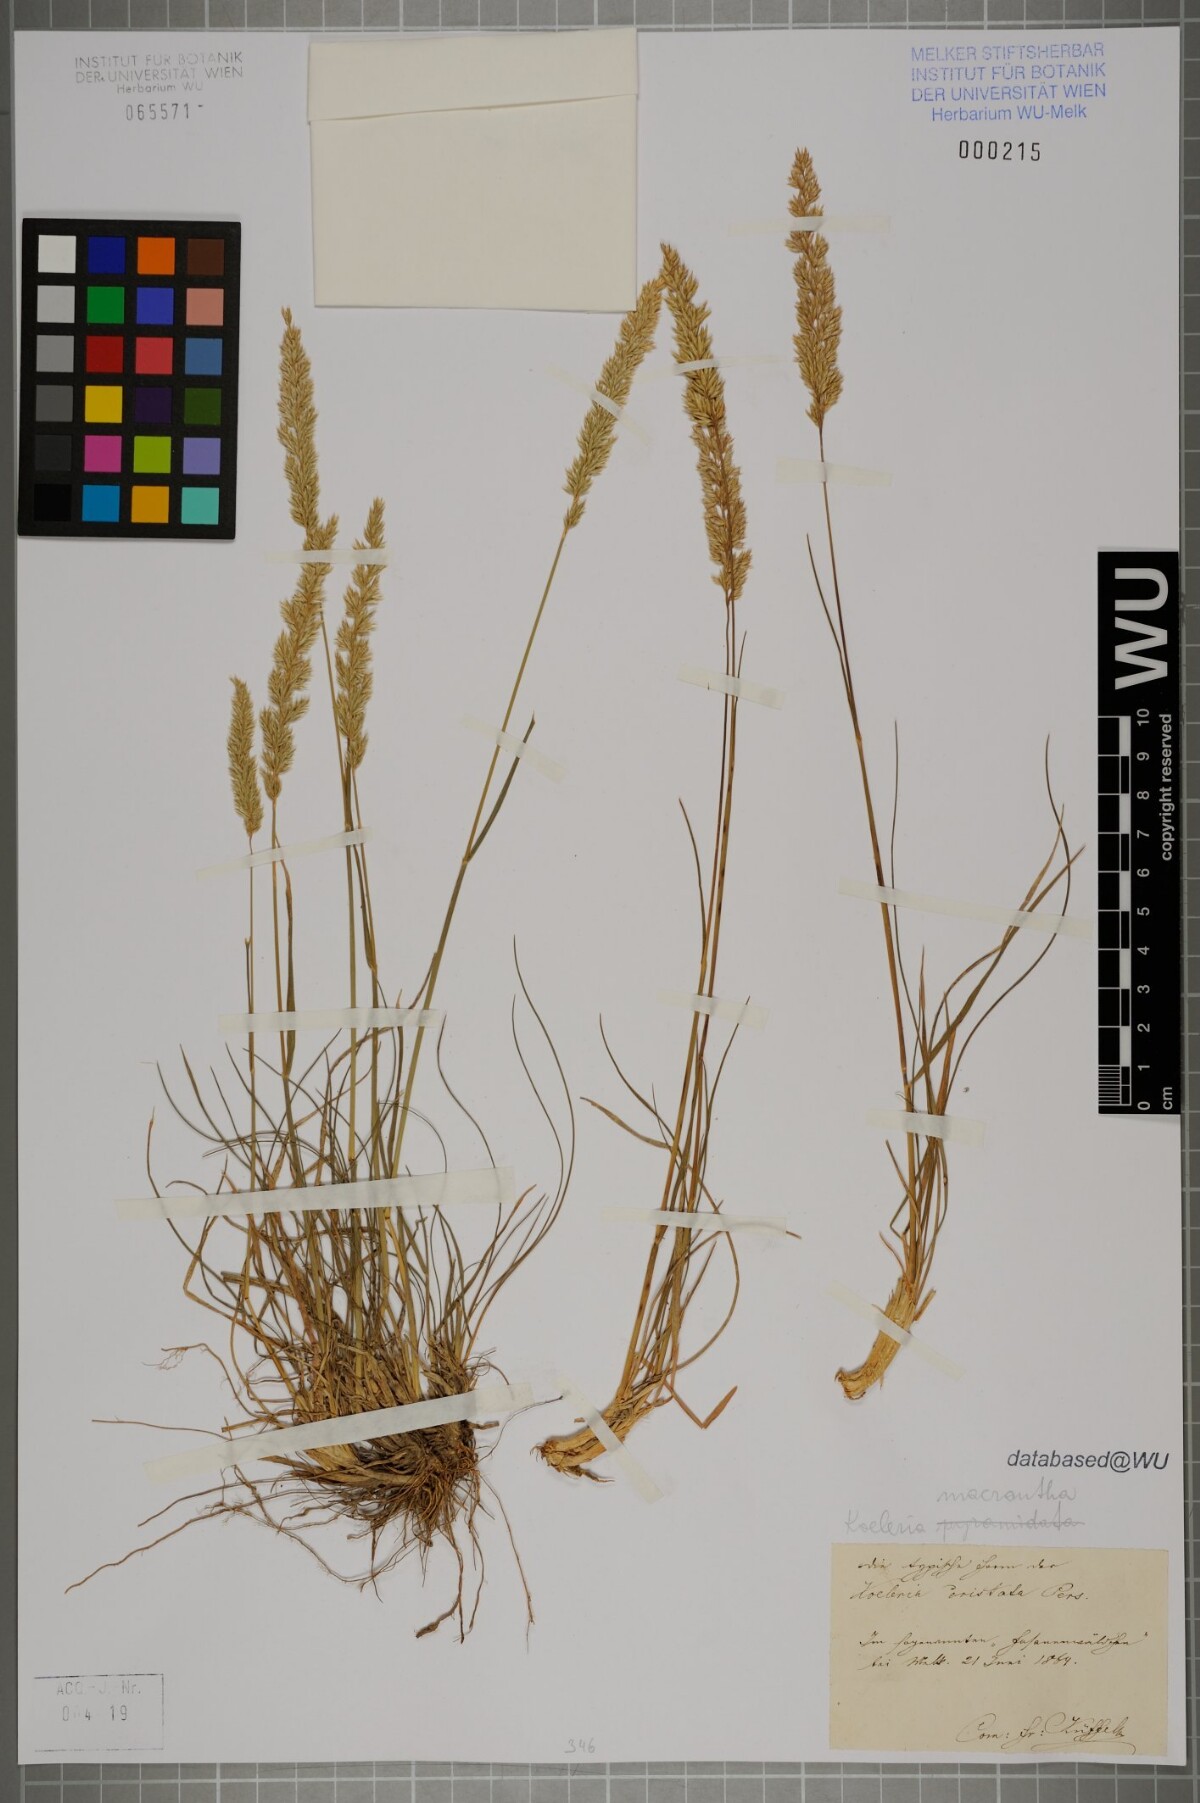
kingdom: Plantae
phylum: Tracheophyta
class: Liliopsida
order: Poales
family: Poaceae
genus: Koeleria
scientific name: Koeleria macrantha
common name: Crested hair-grass
